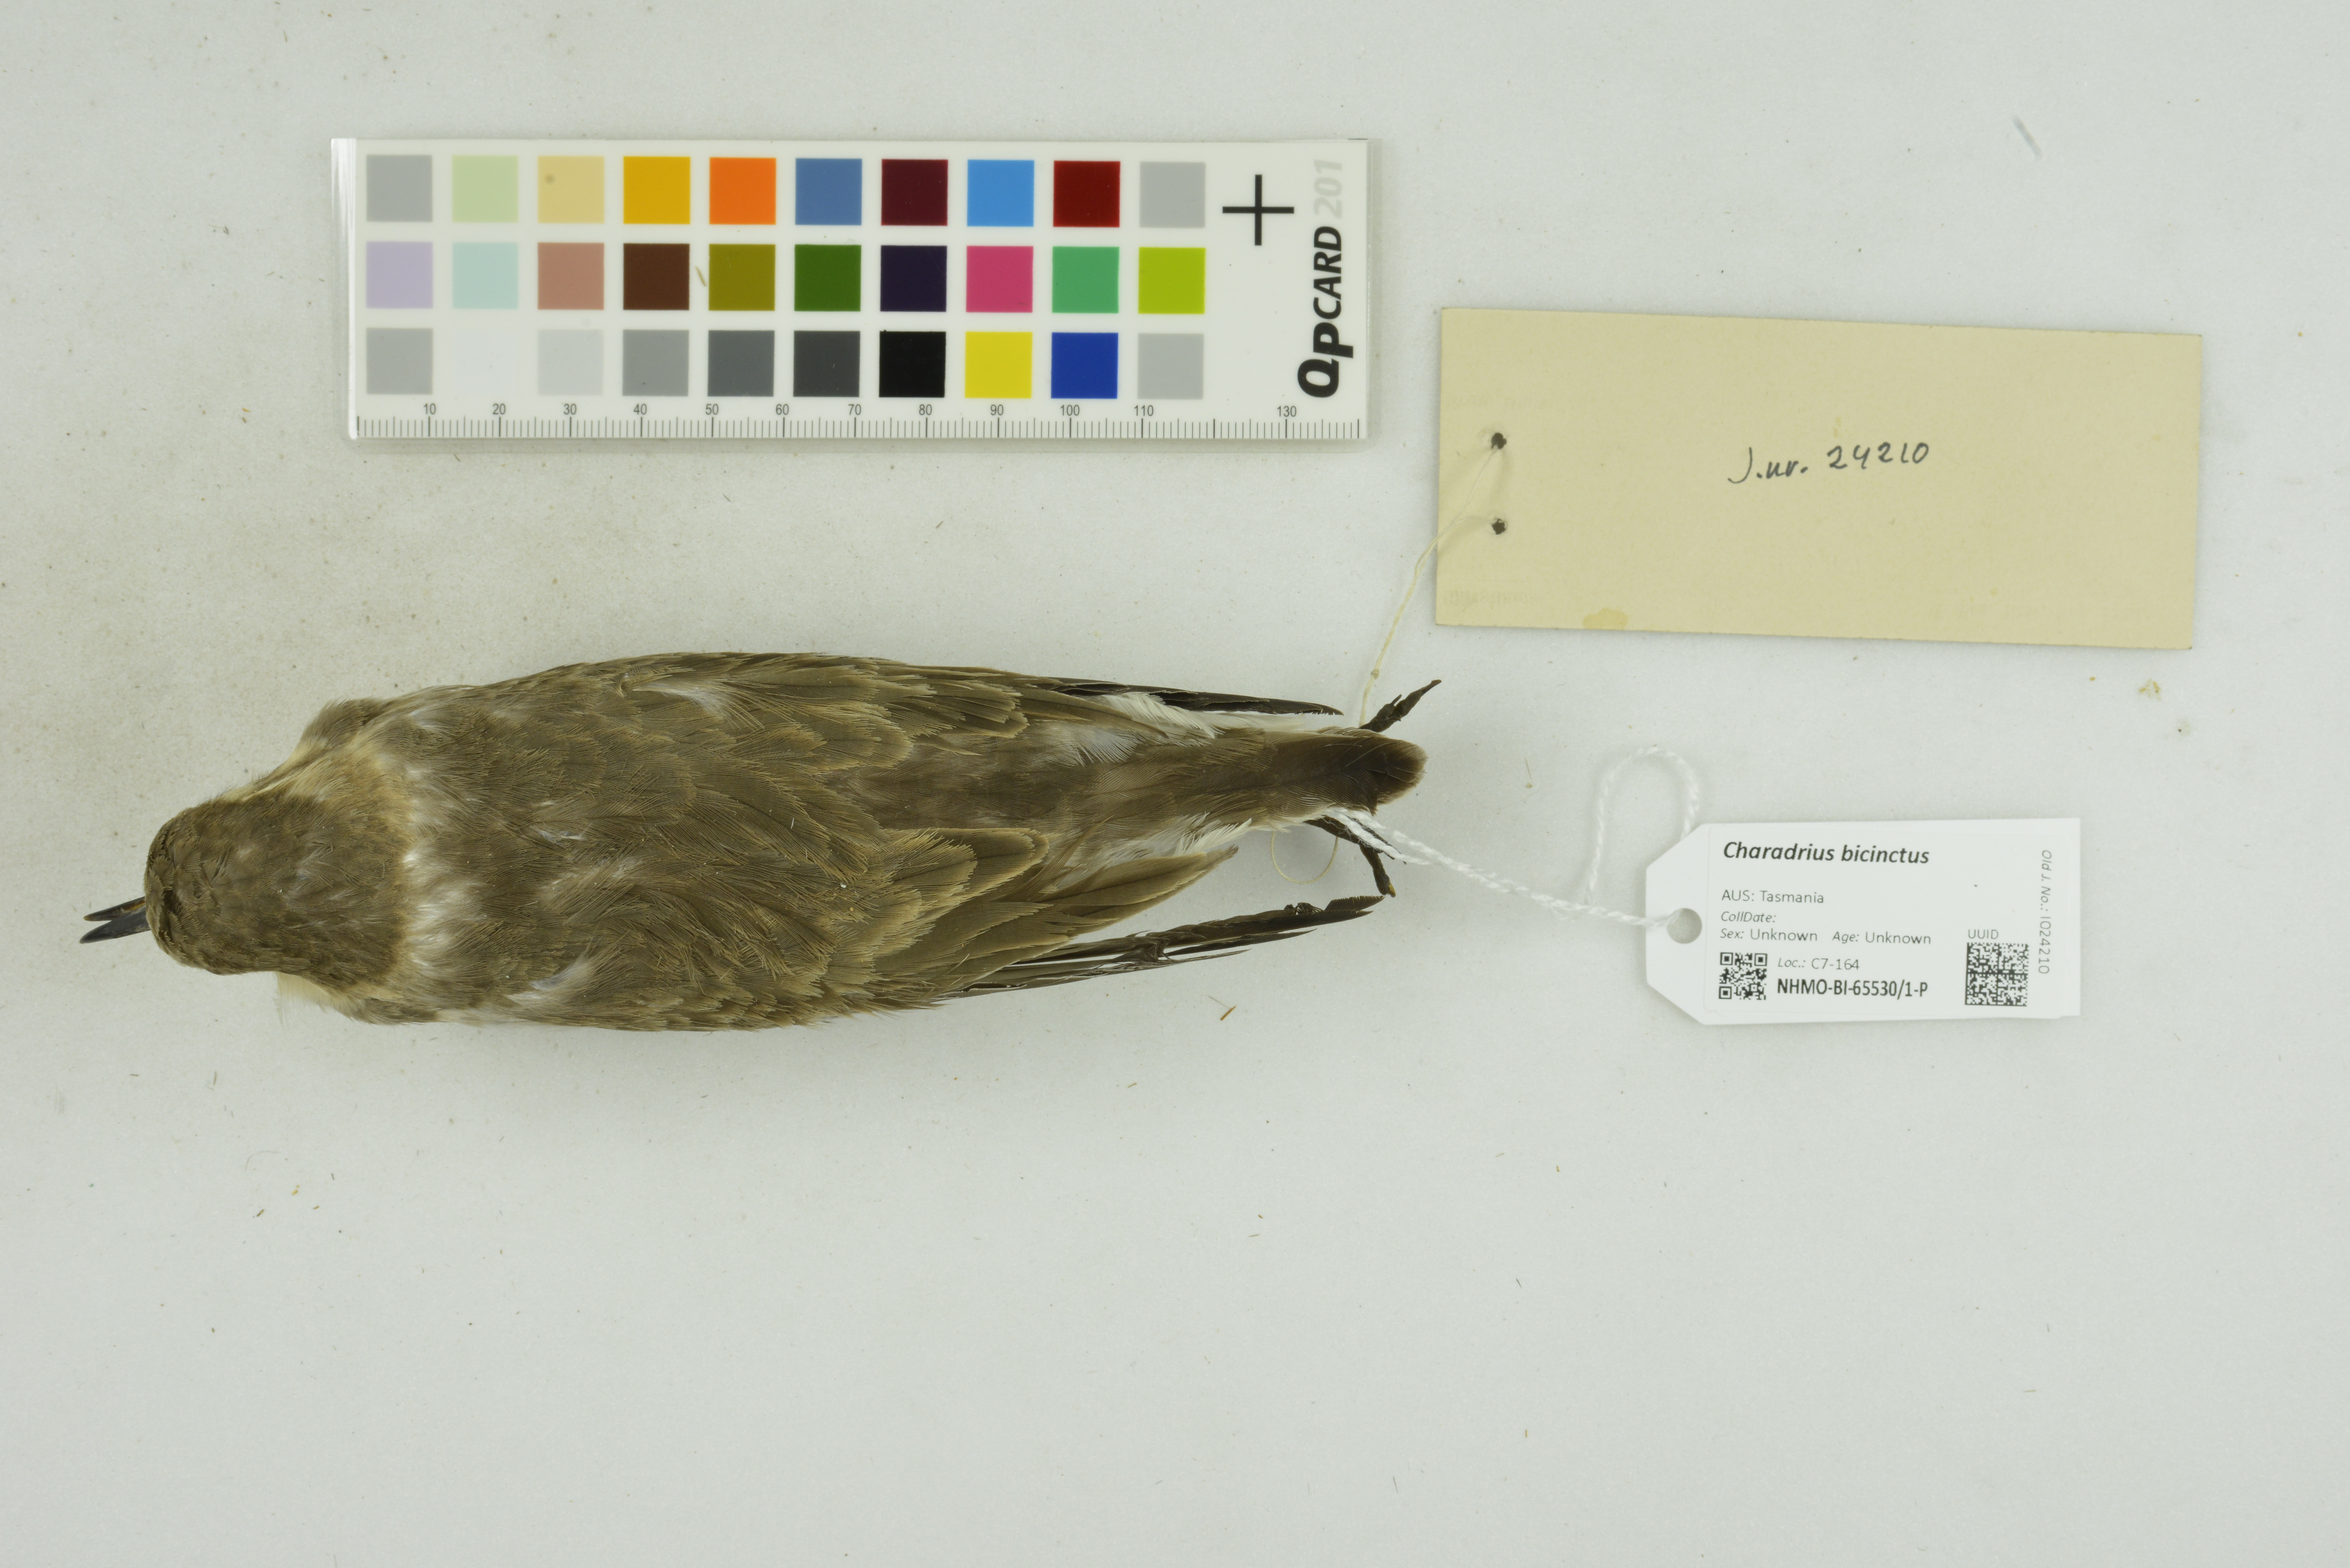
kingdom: Animalia
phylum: Chordata
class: Aves
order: Charadriiformes
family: Charadriidae
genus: Charadrius
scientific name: Charadrius bicinctus
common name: Double-banded plover
